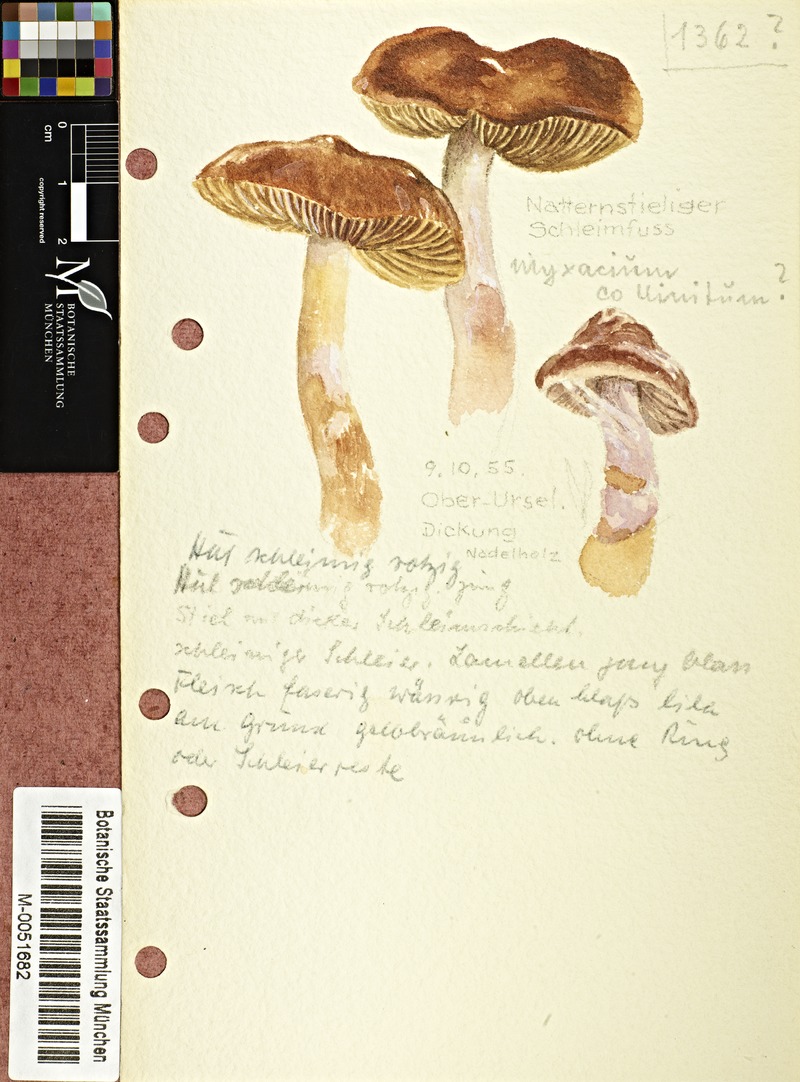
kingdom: Fungi
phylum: Basidiomycota
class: Agaricomycetes
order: Agaricales
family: Cortinariaceae
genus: Cortinarius
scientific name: Cortinarius collinitus
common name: Blue-girdled webcap
